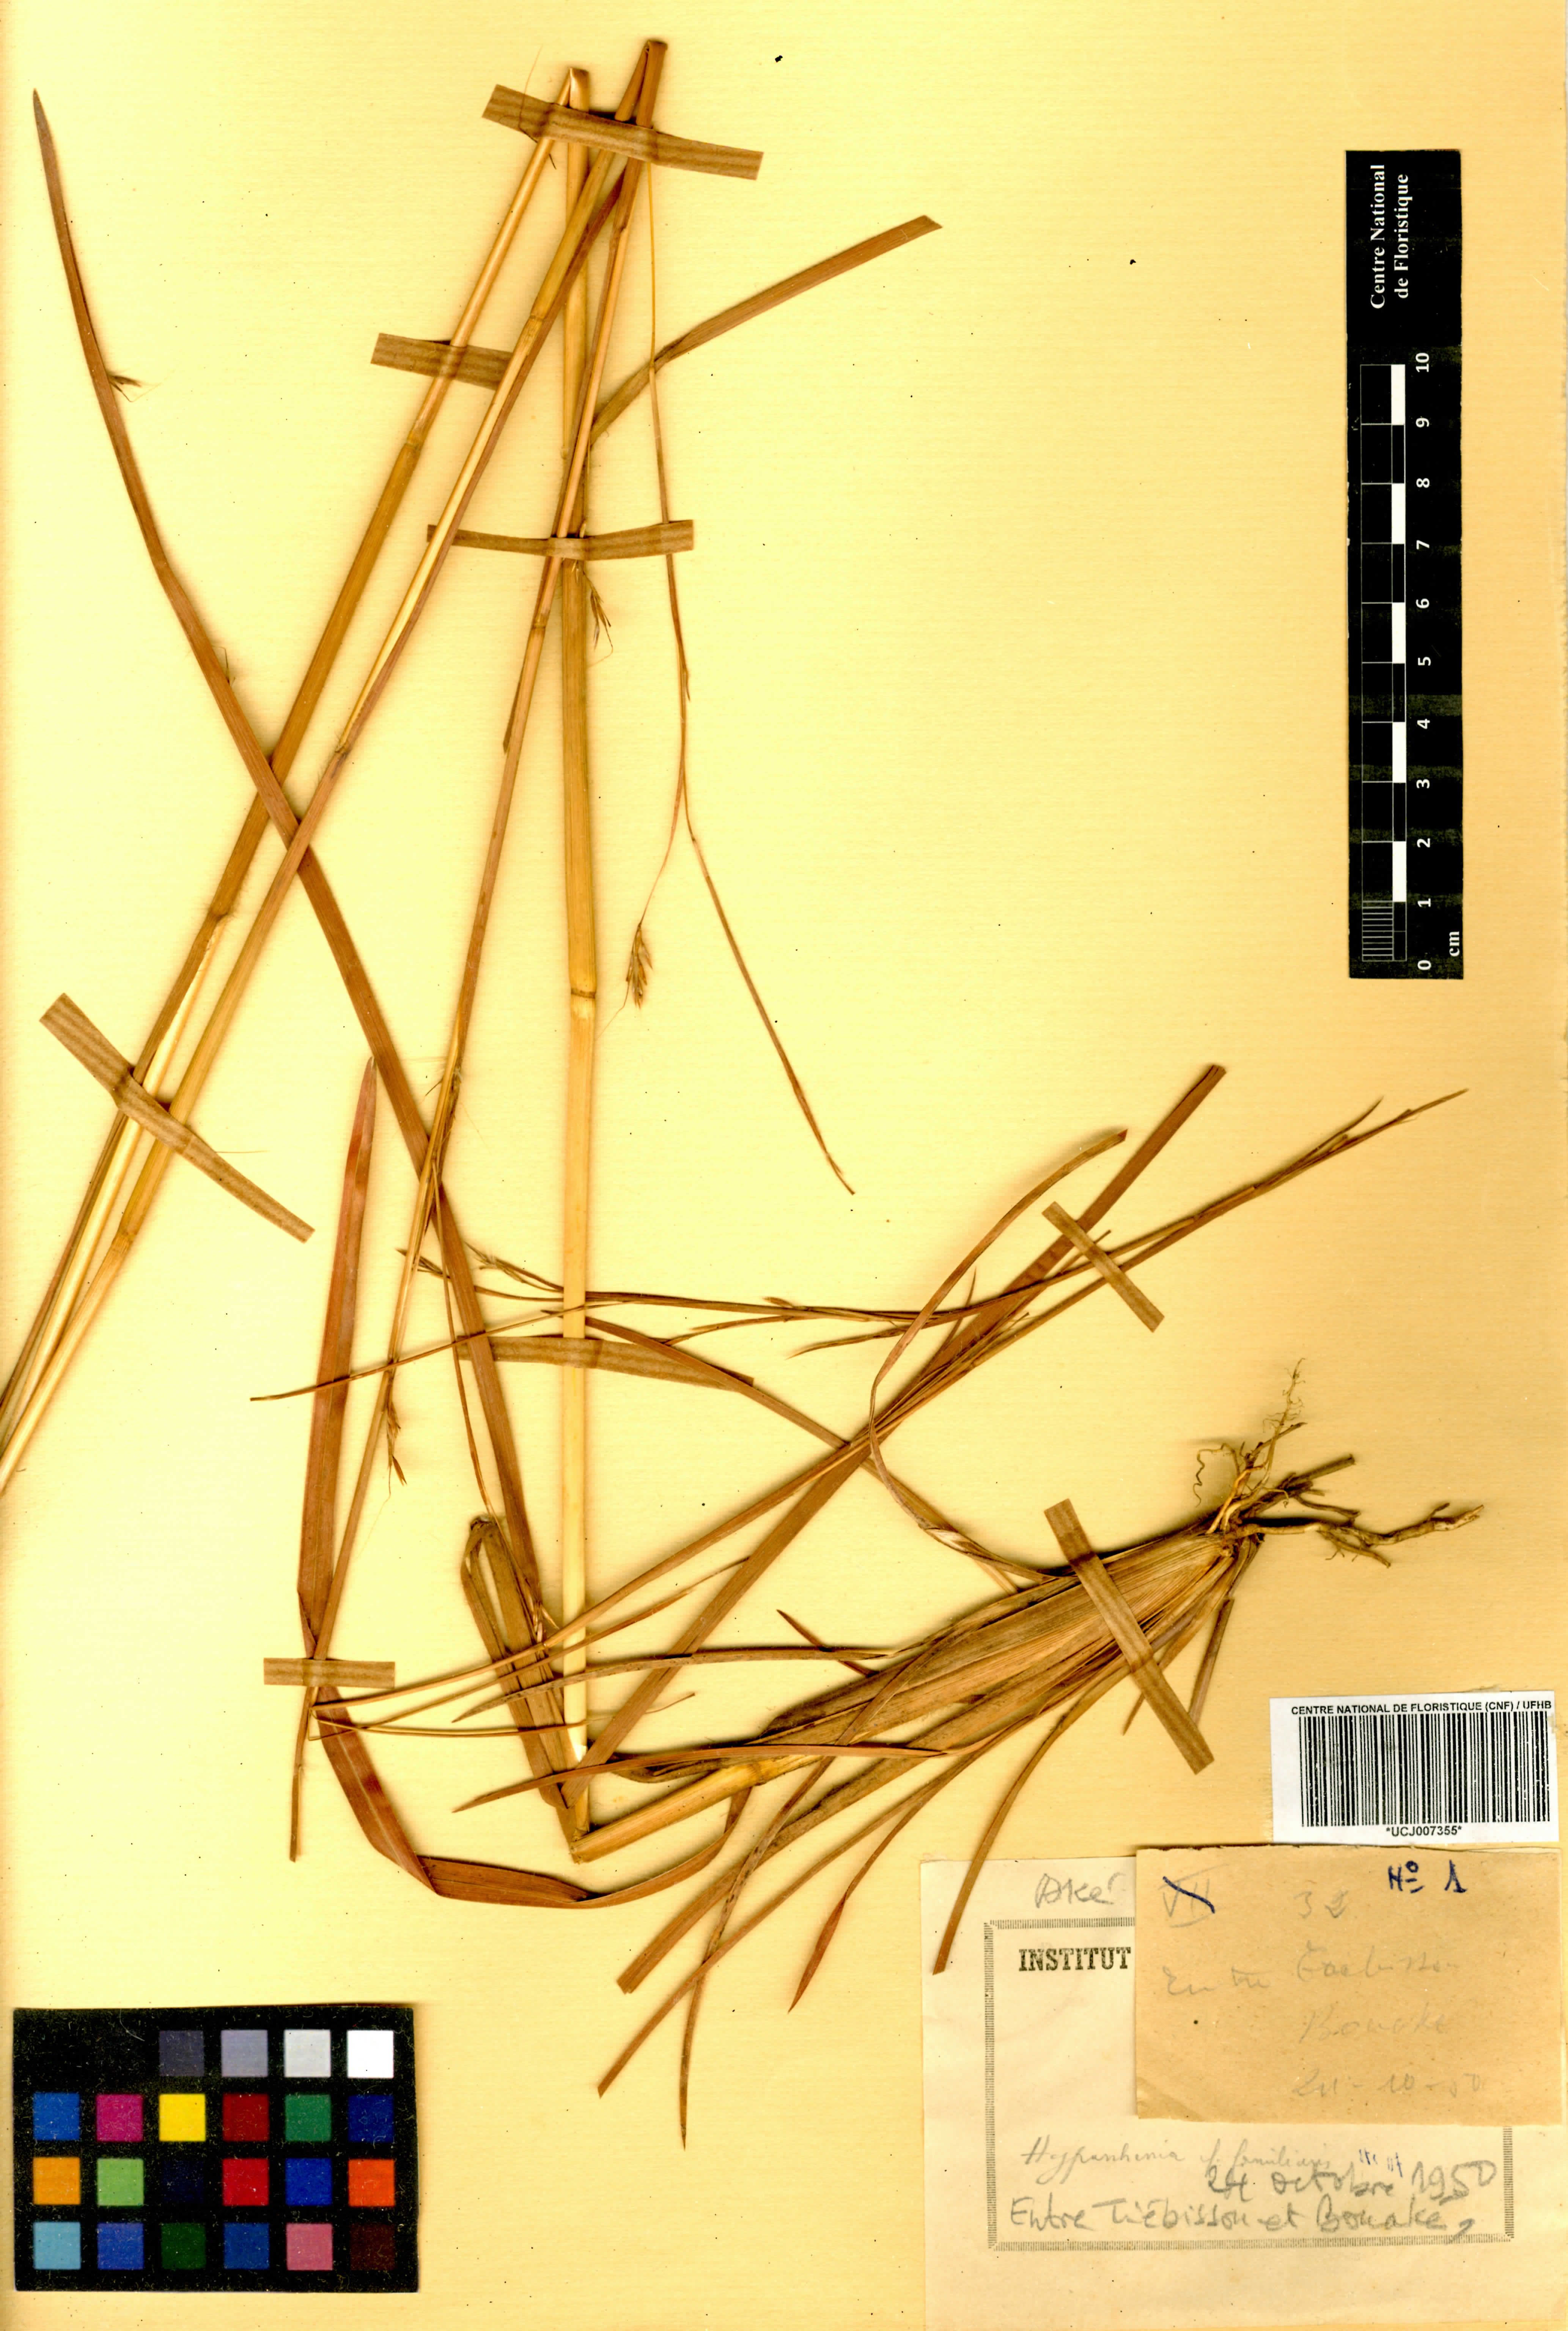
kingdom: Plantae
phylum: Tracheophyta
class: Liliopsida
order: Poales
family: Poaceae
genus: Hyparrhenia
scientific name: Hyparrhenia familiaris
